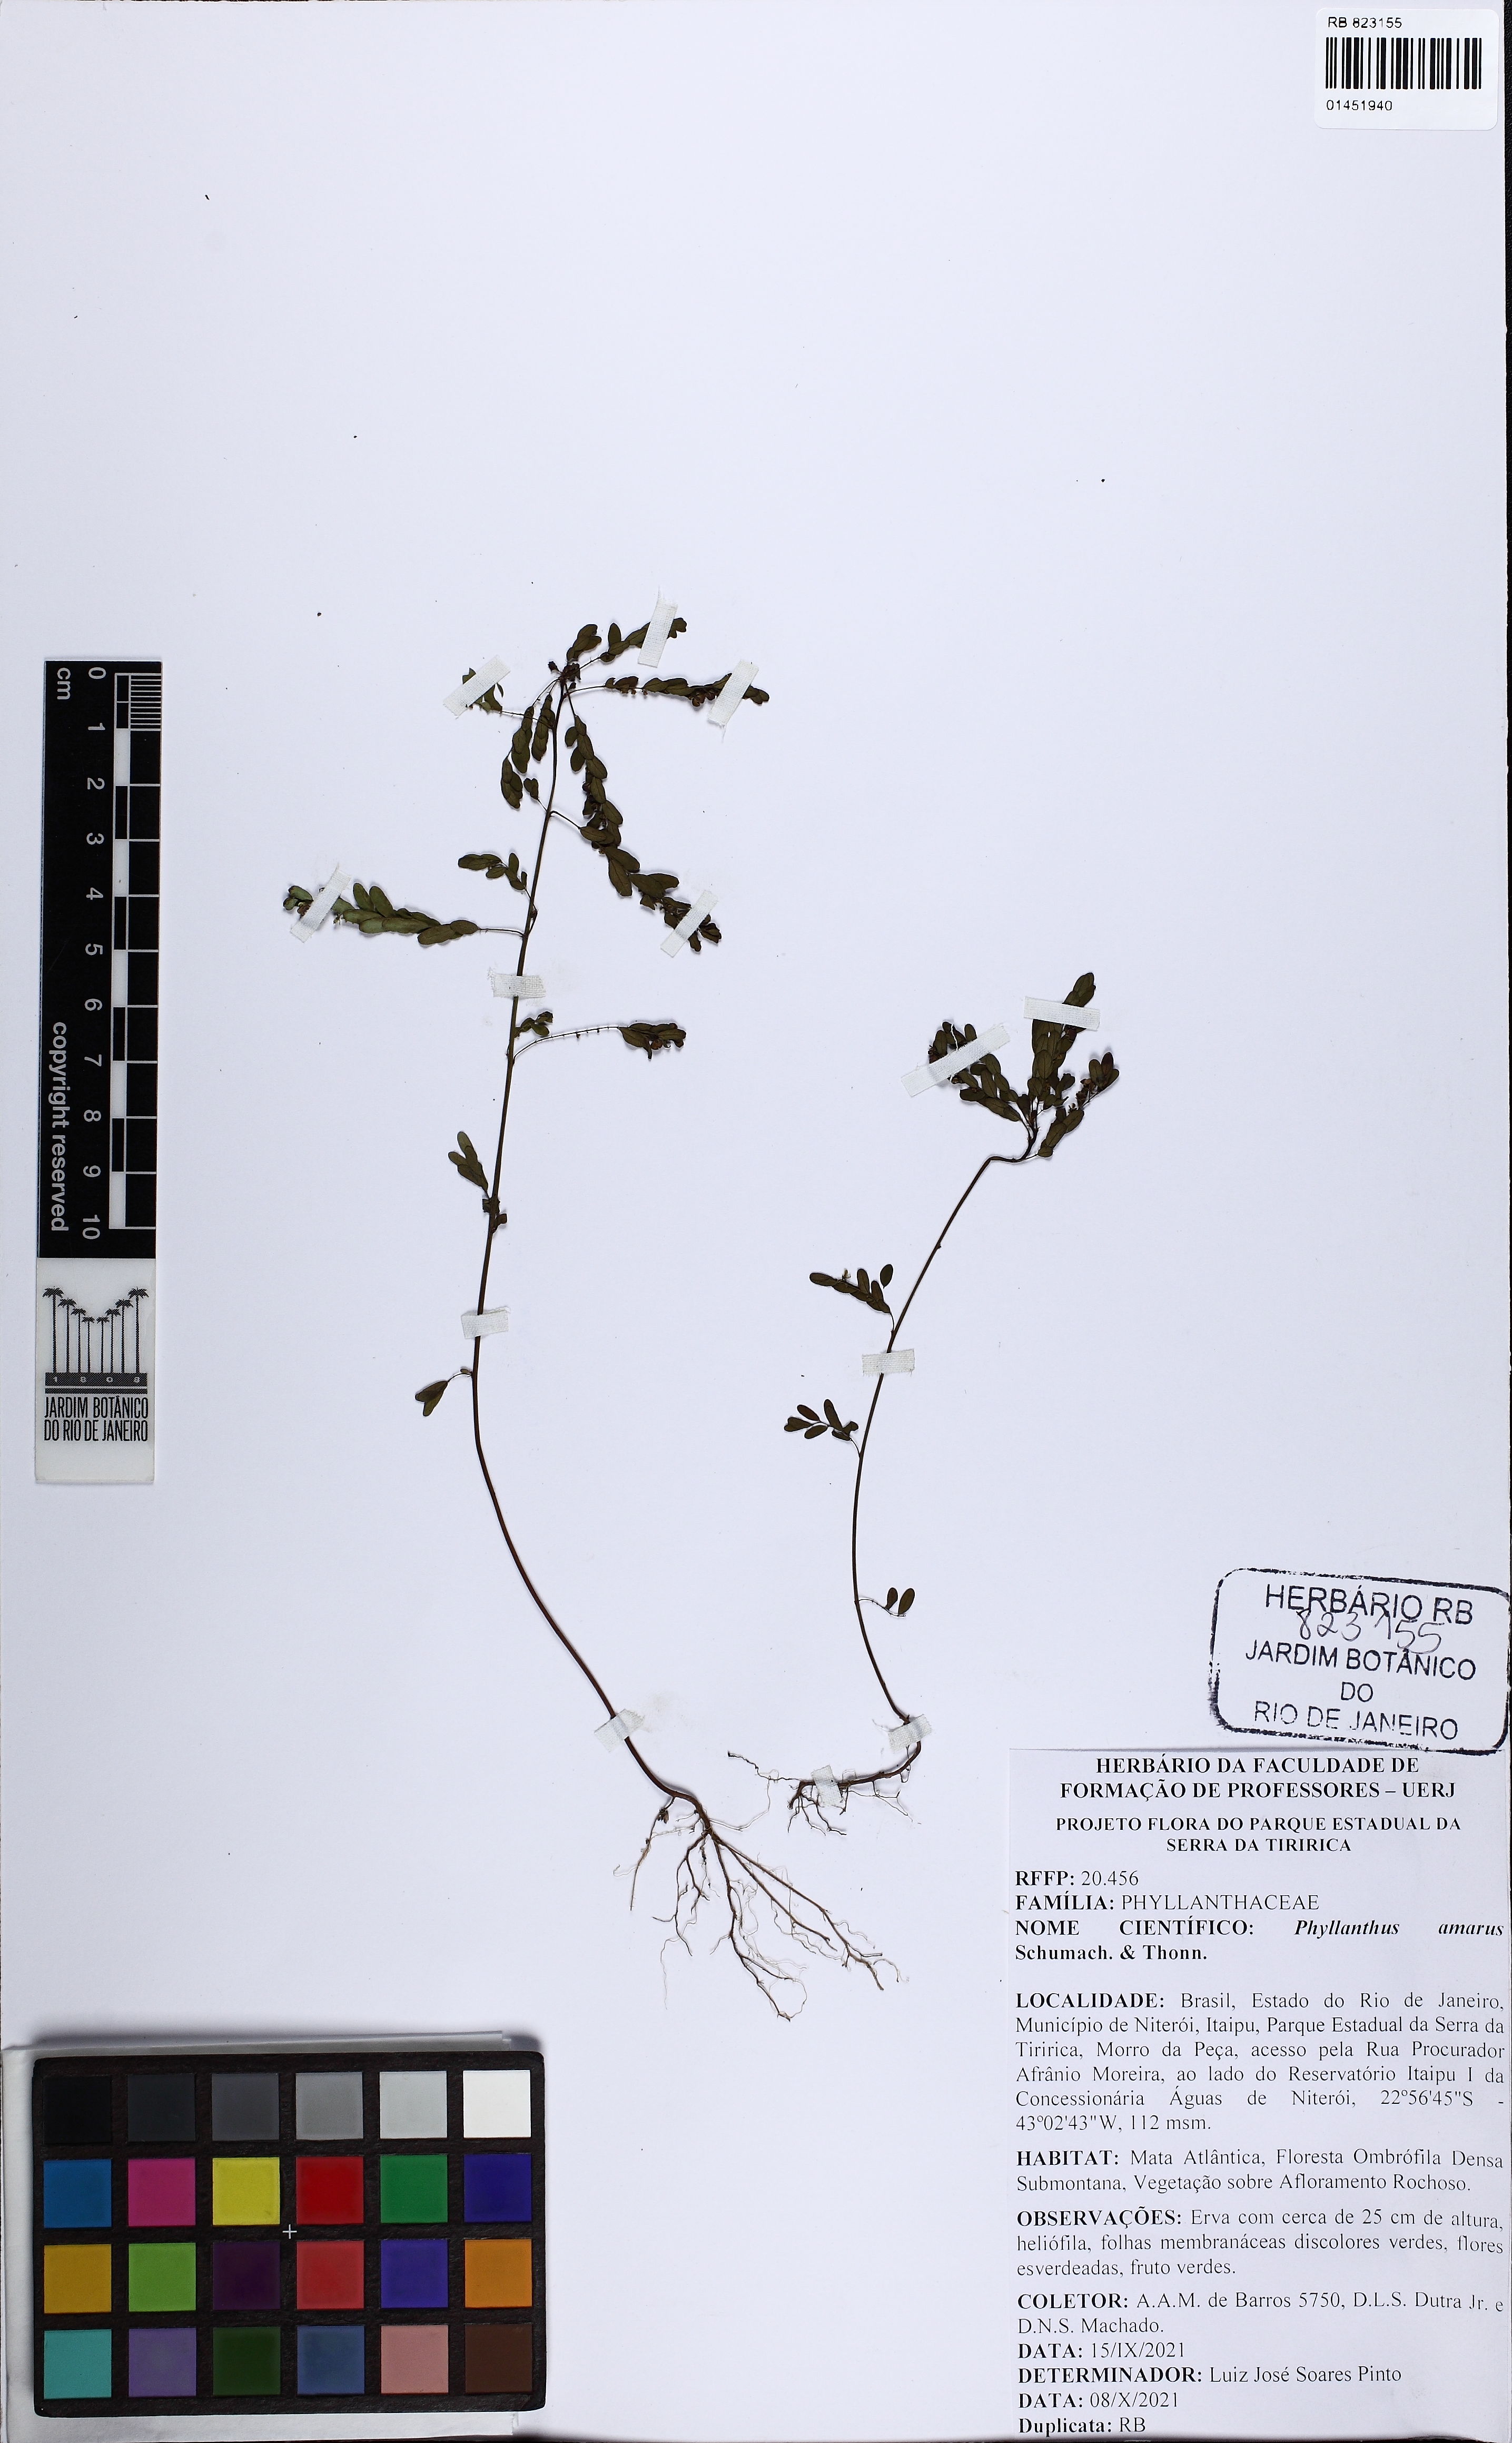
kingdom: Plantae
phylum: Tracheophyta
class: Magnoliopsida
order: Malpighiales
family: Phyllanthaceae
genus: Phyllanthus
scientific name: Phyllanthus amarus
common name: Carry me seed
